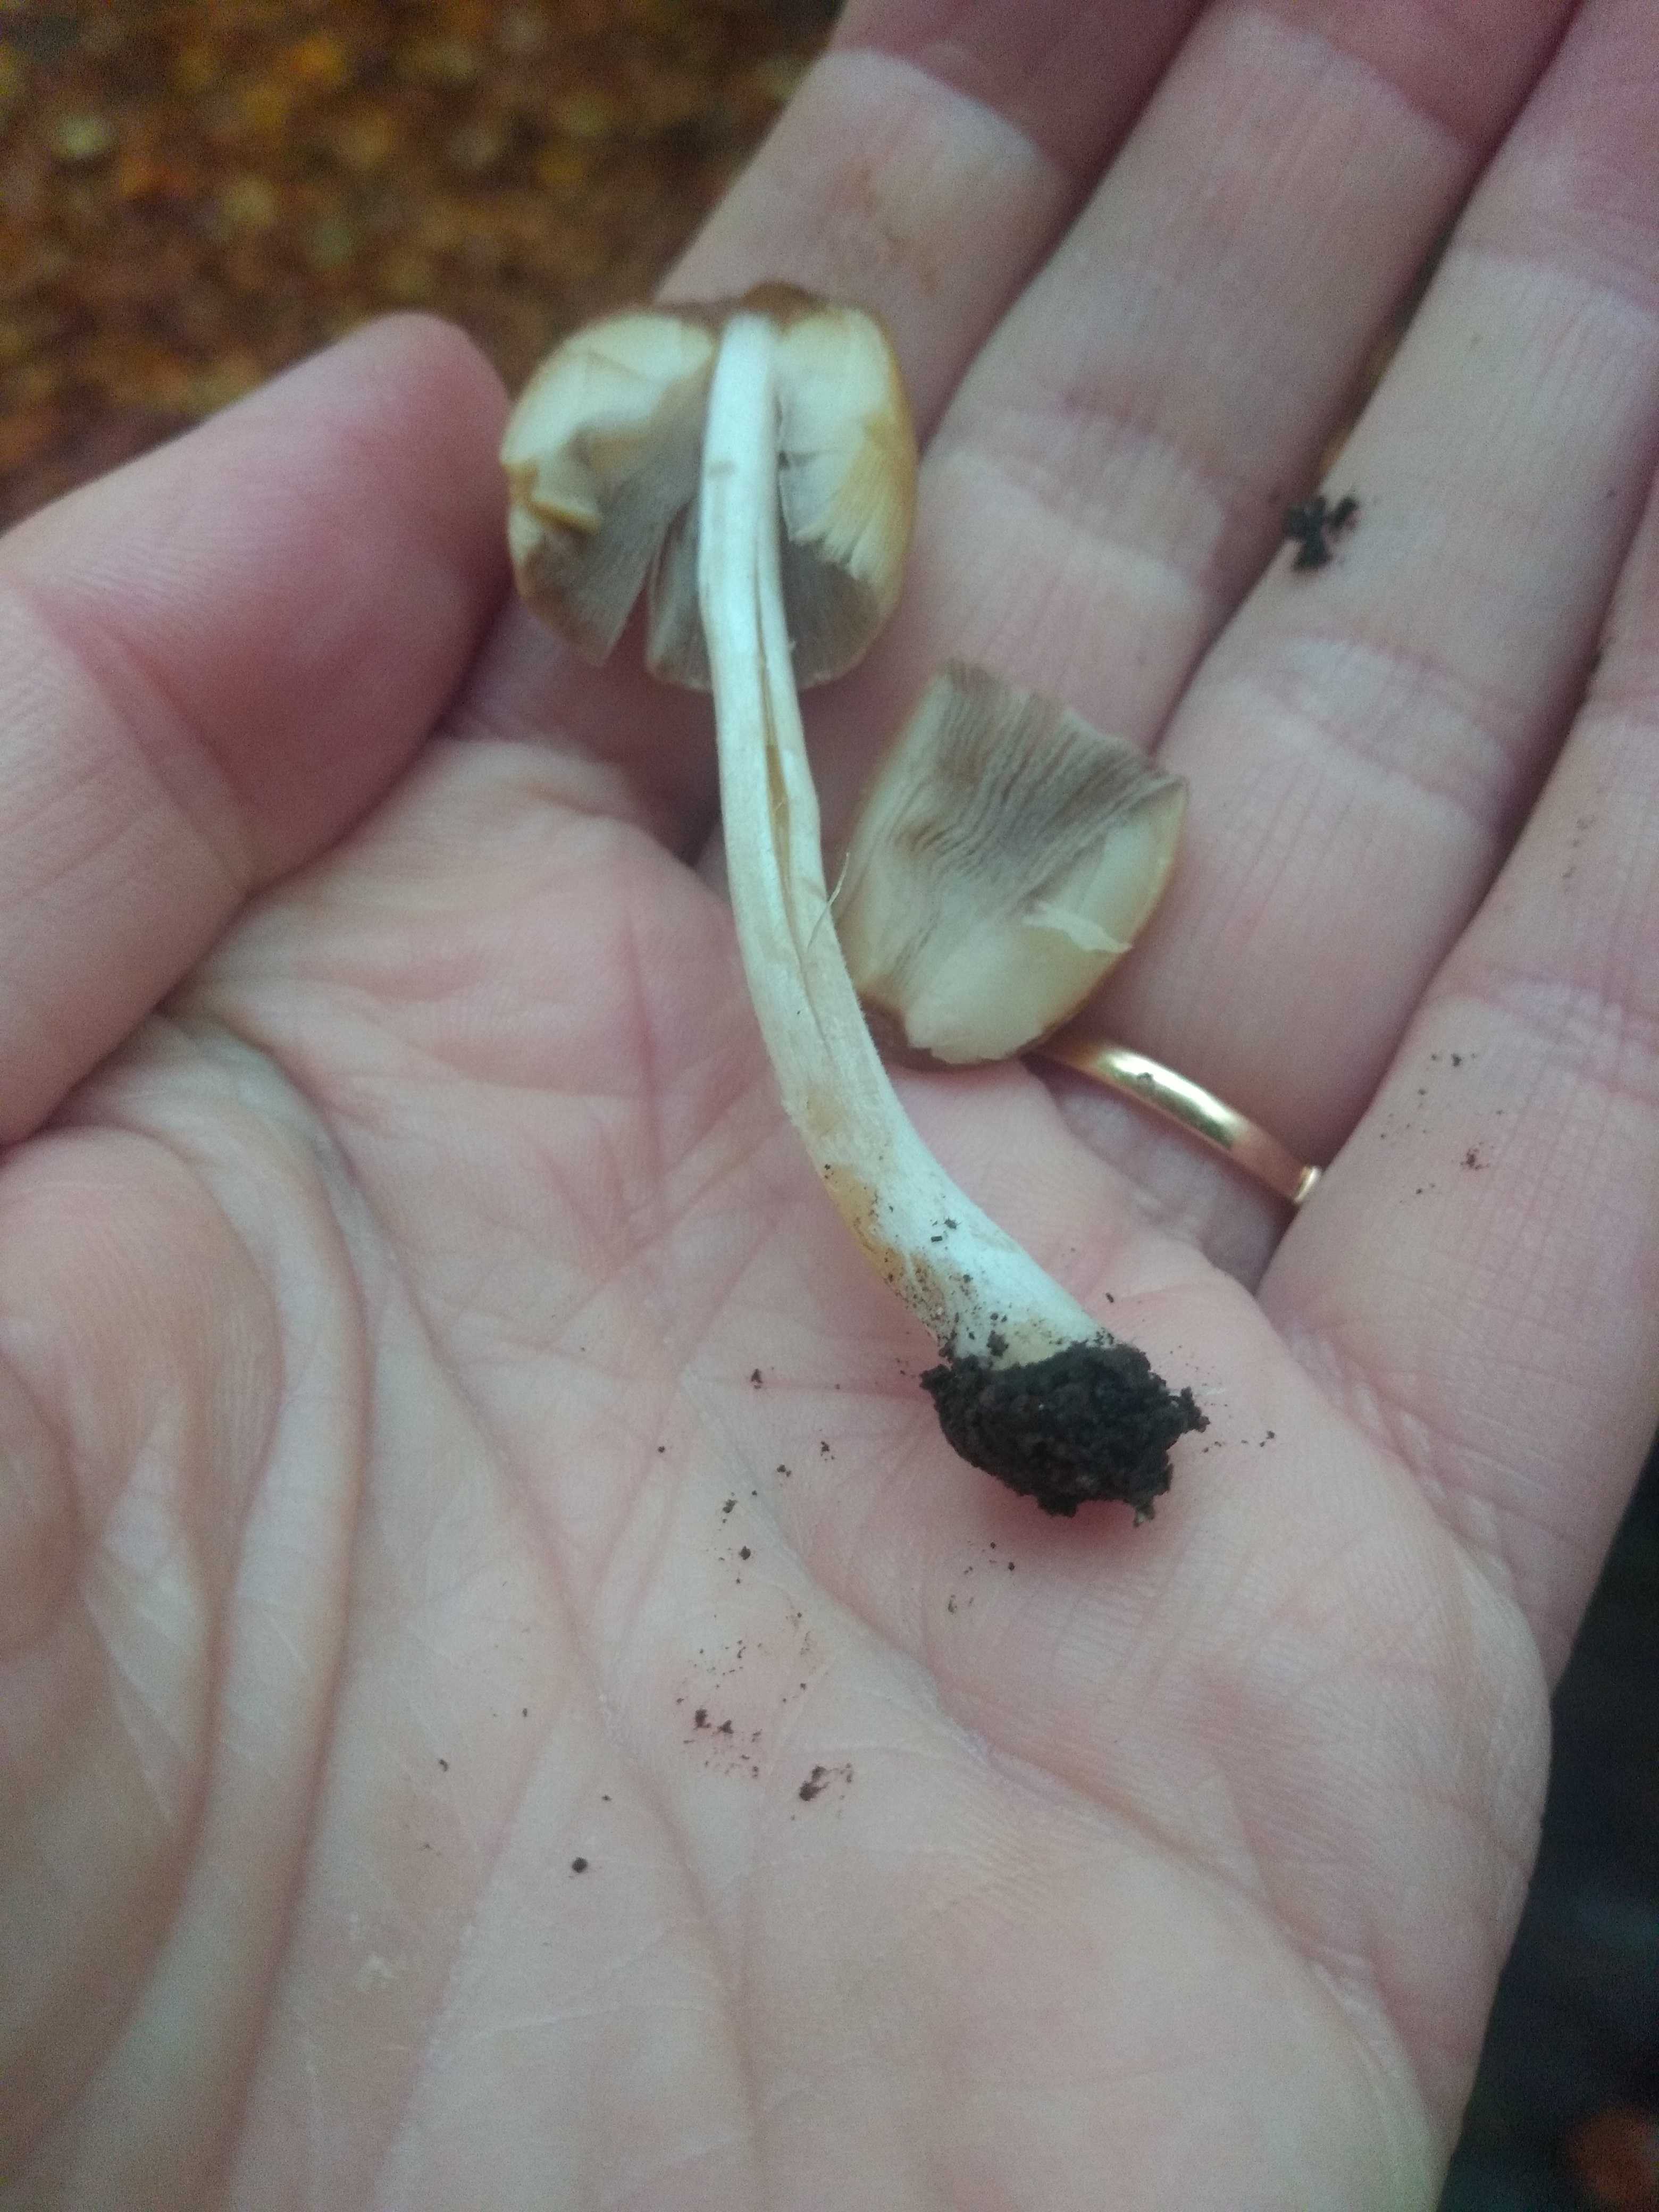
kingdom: Fungi
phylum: Basidiomycota
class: Agaricomycetes
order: Agaricales
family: Psathyrellaceae
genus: Coprinellus
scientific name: Coprinellus
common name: blækhat
